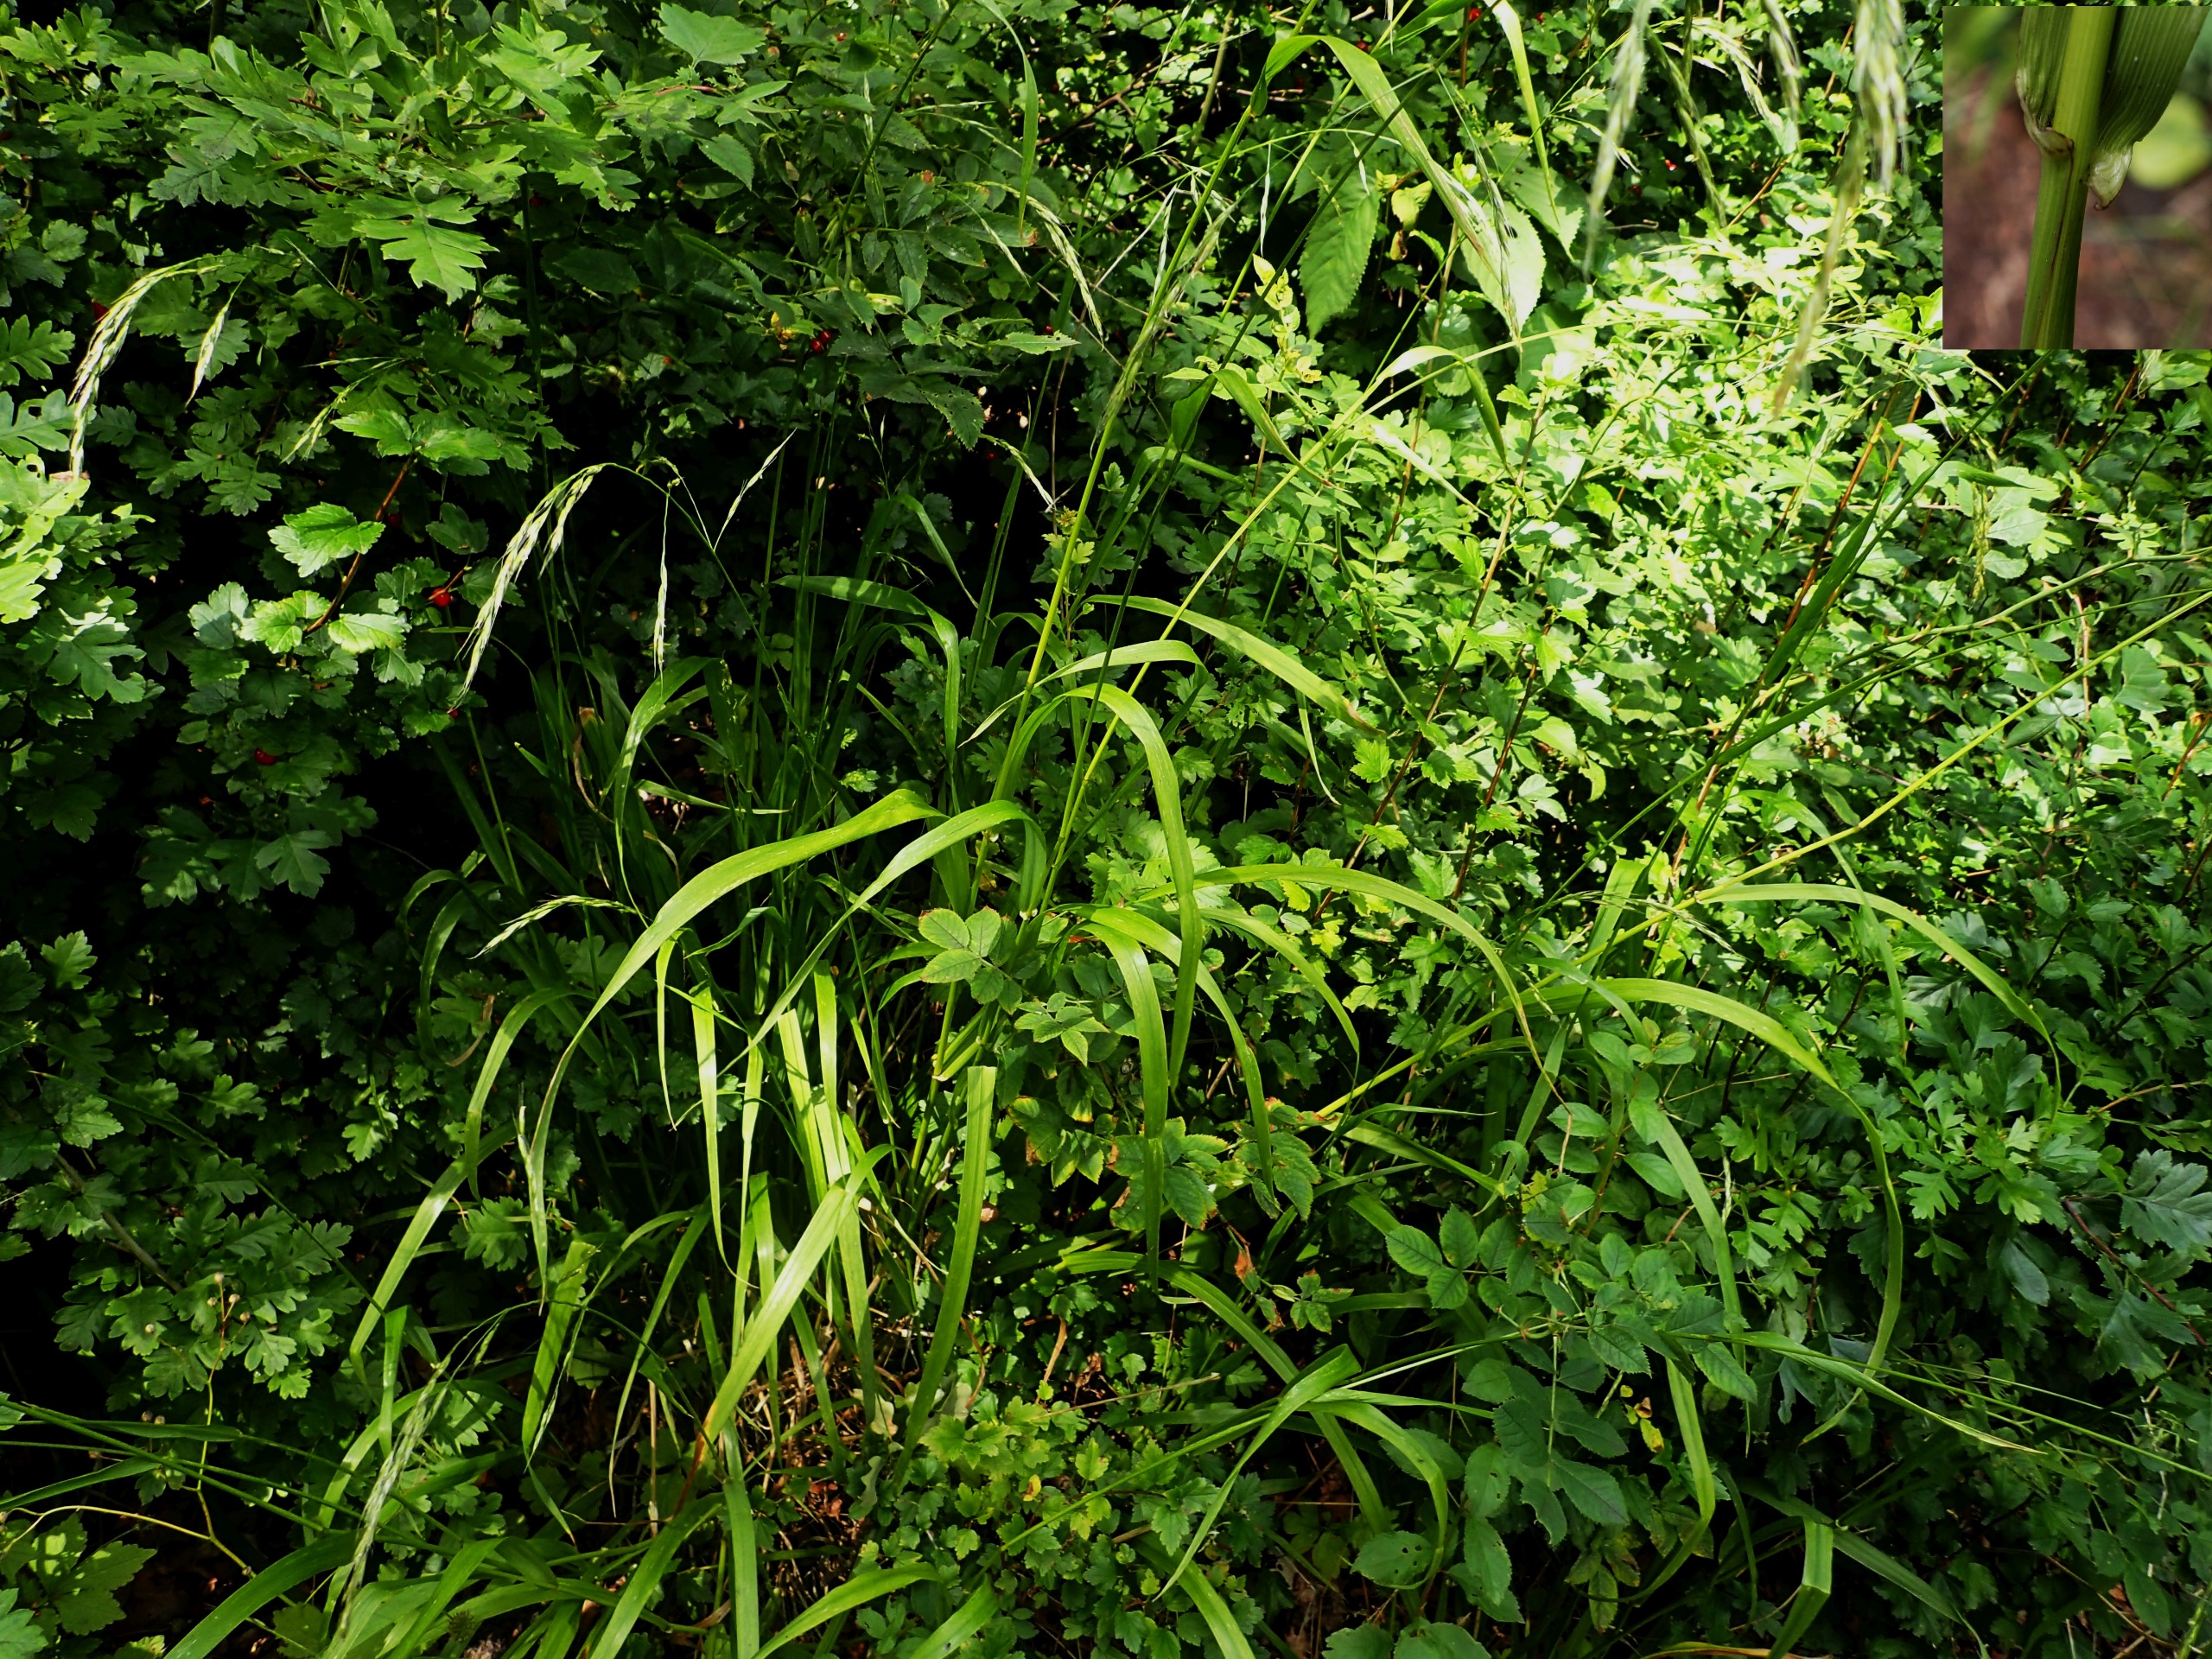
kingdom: Plantae
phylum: Tracheophyta
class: Liliopsida
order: Poales
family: Poaceae
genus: Lolium
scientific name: Lolium giganteum
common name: Kæmpe-svingel
